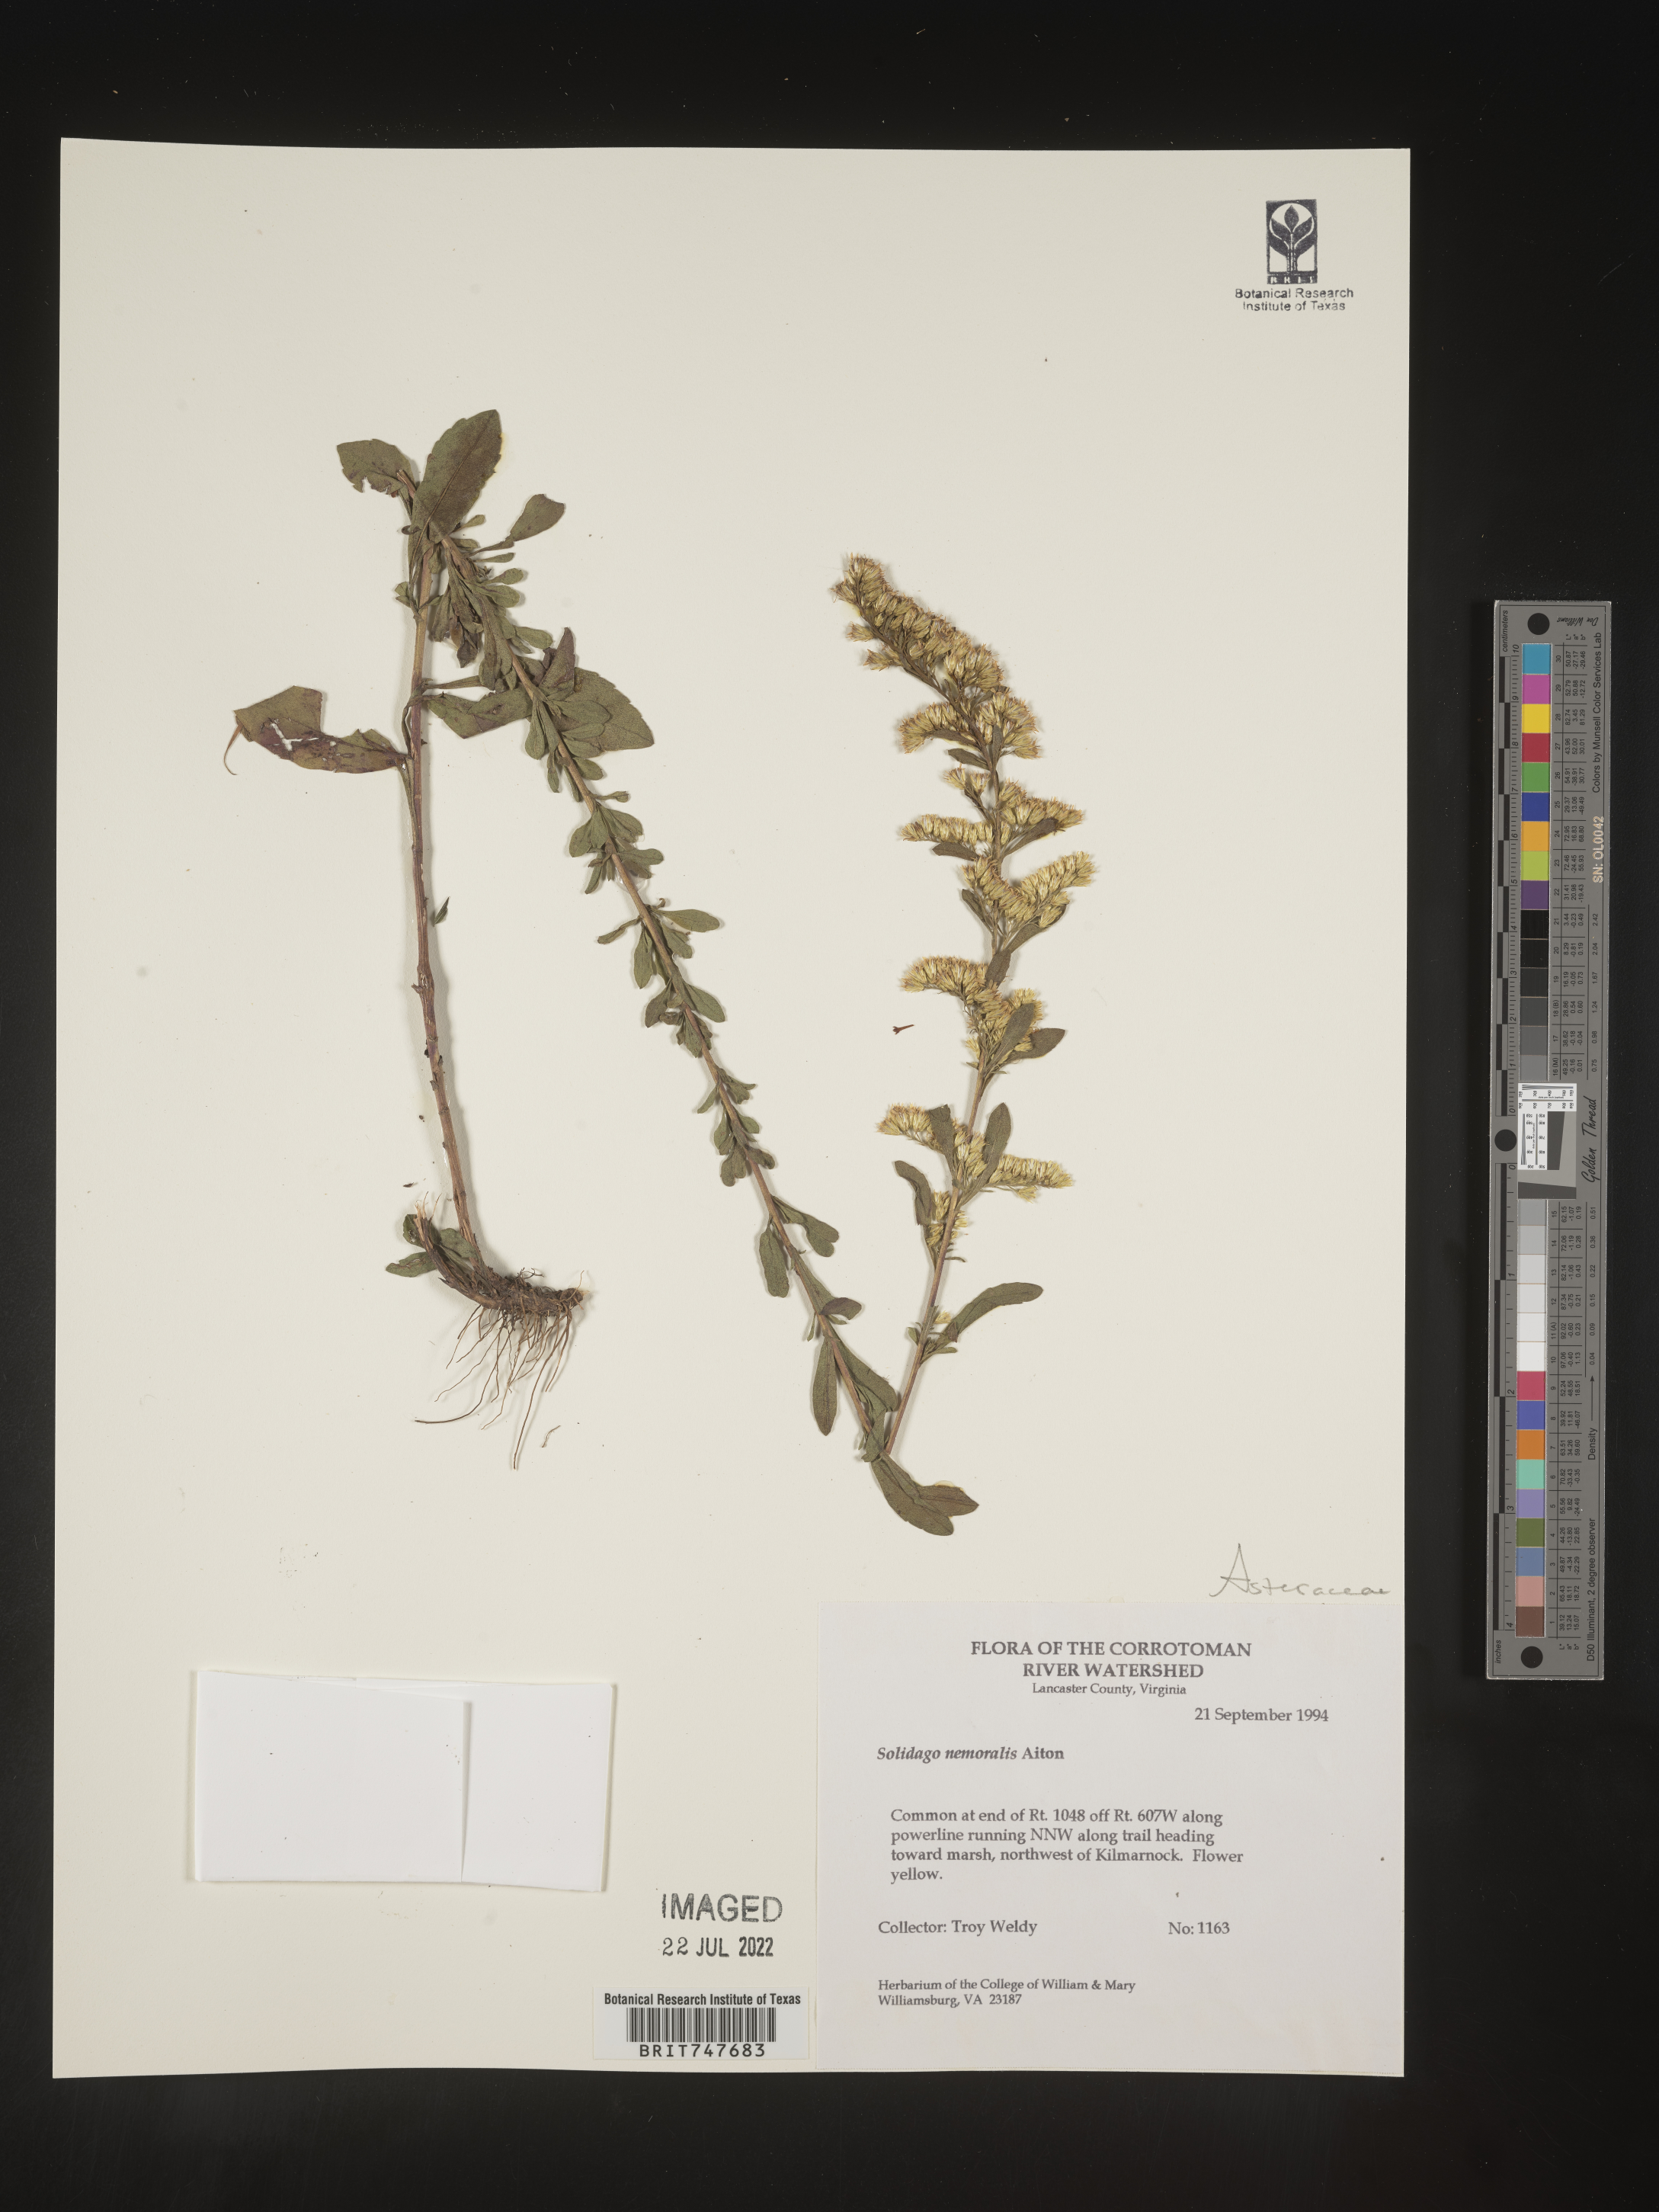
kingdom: Plantae
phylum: Tracheophyta
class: Magnoliopsida
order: Asterales
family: Asteraceae
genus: Solidago
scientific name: Solidago nemoralis
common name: Grey goldenrod
